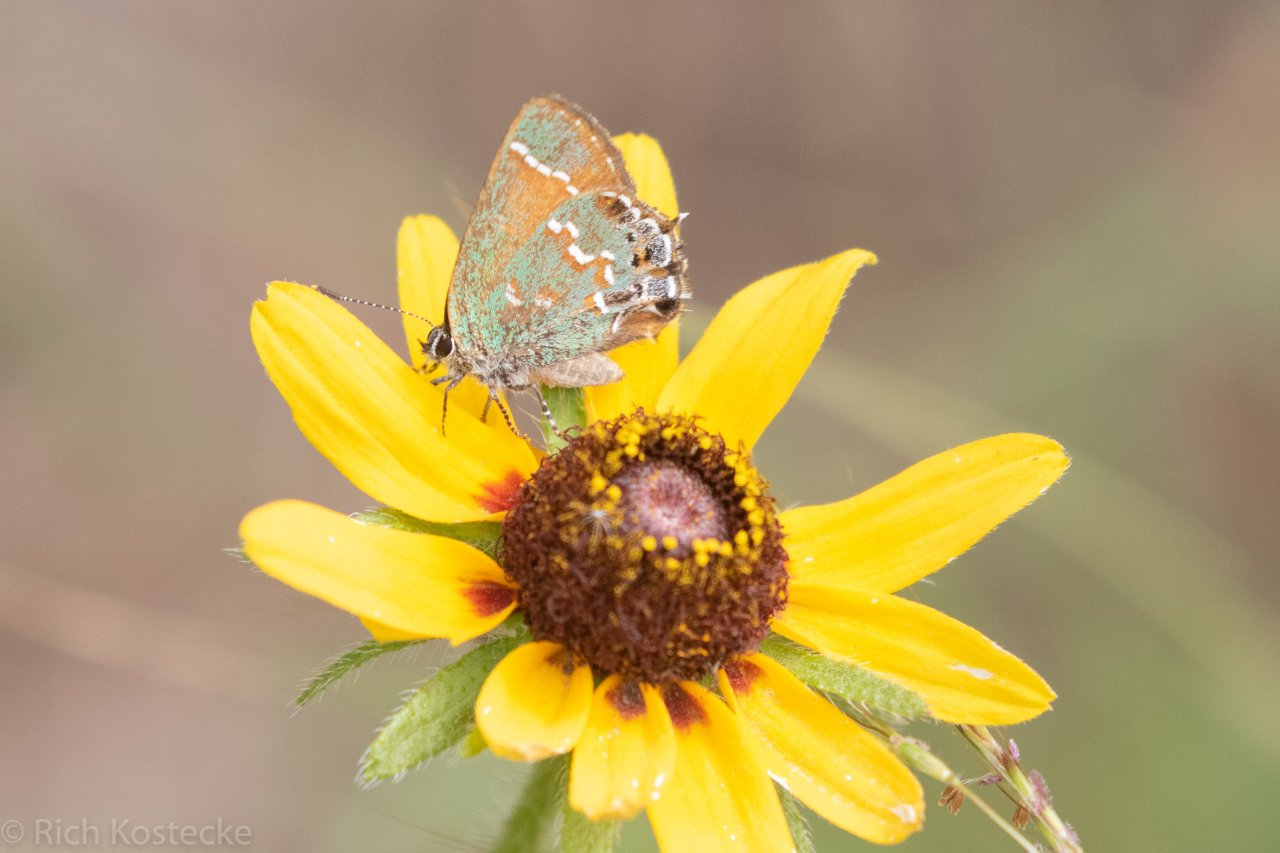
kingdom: Animalia
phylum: Arthropoda
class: Insecta
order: Lepidoptera
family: Lycaenidae
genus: Mitoura
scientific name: Mitoura gryneus
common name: Juniper Hairstreak
